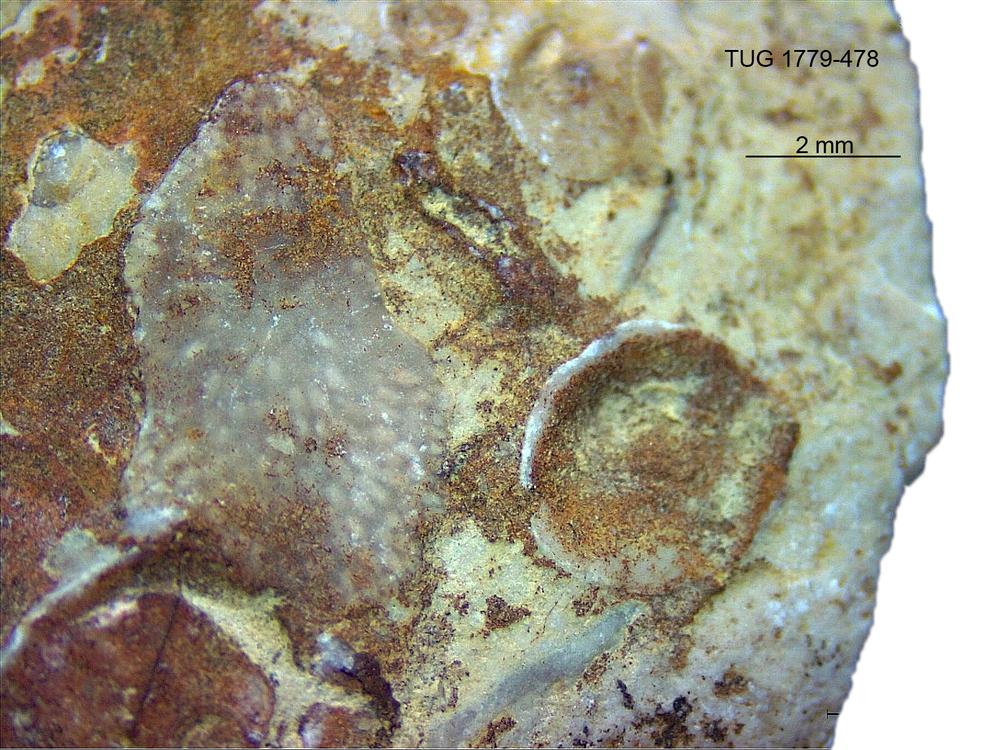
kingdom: Animalia
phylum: Bryozoa
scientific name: Bryozoa
